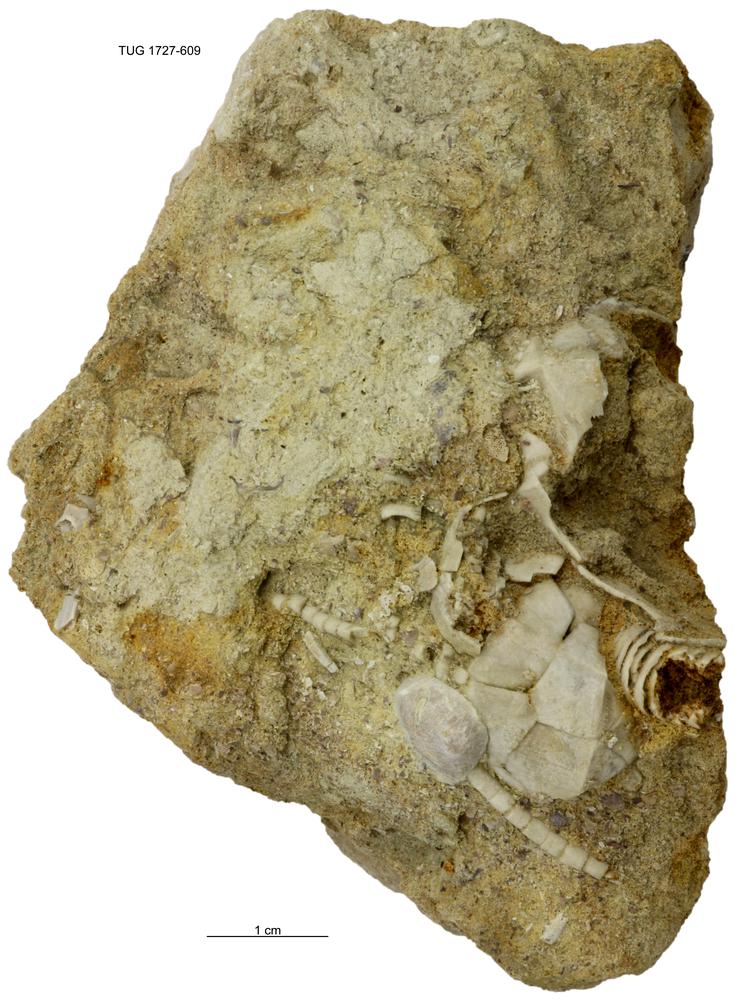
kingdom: Animalia
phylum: Echinodermata
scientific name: Echinodermata
